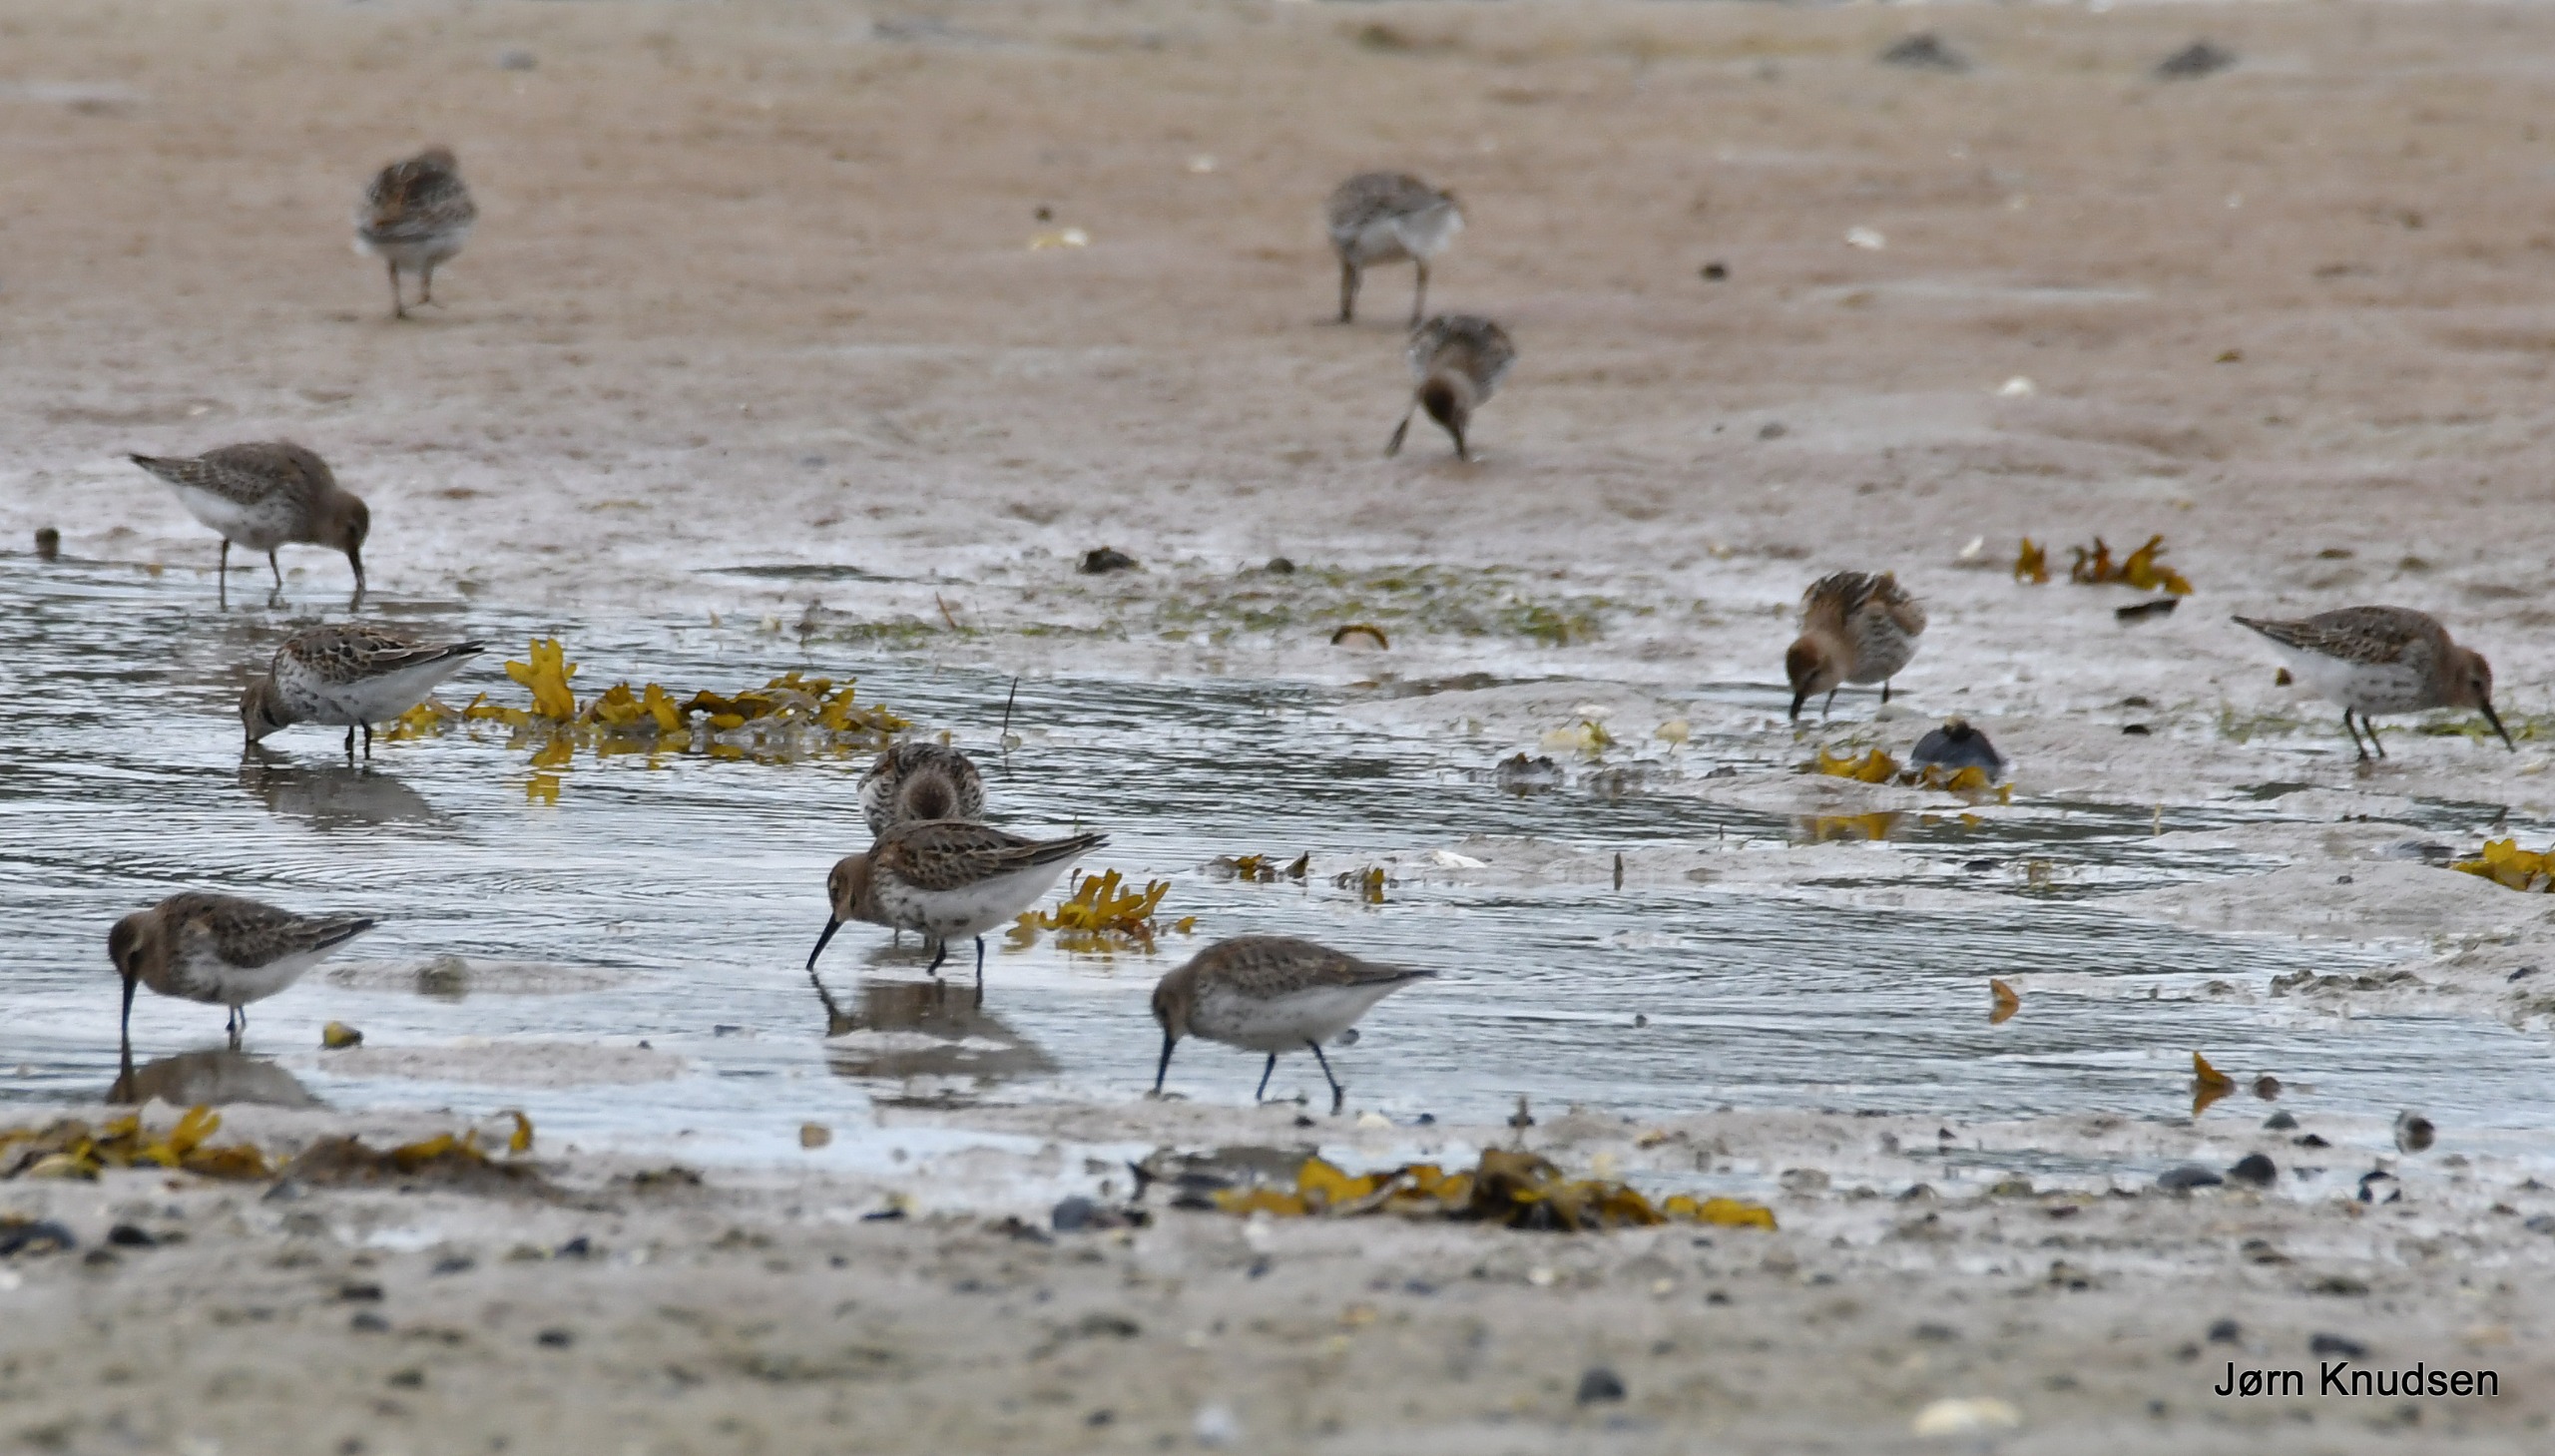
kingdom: Animalia
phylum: Chordata
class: Aves
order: Charadriiformes
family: Scolopacidae
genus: Calidris
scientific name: Calidris alpina
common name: Almindelig ryle
